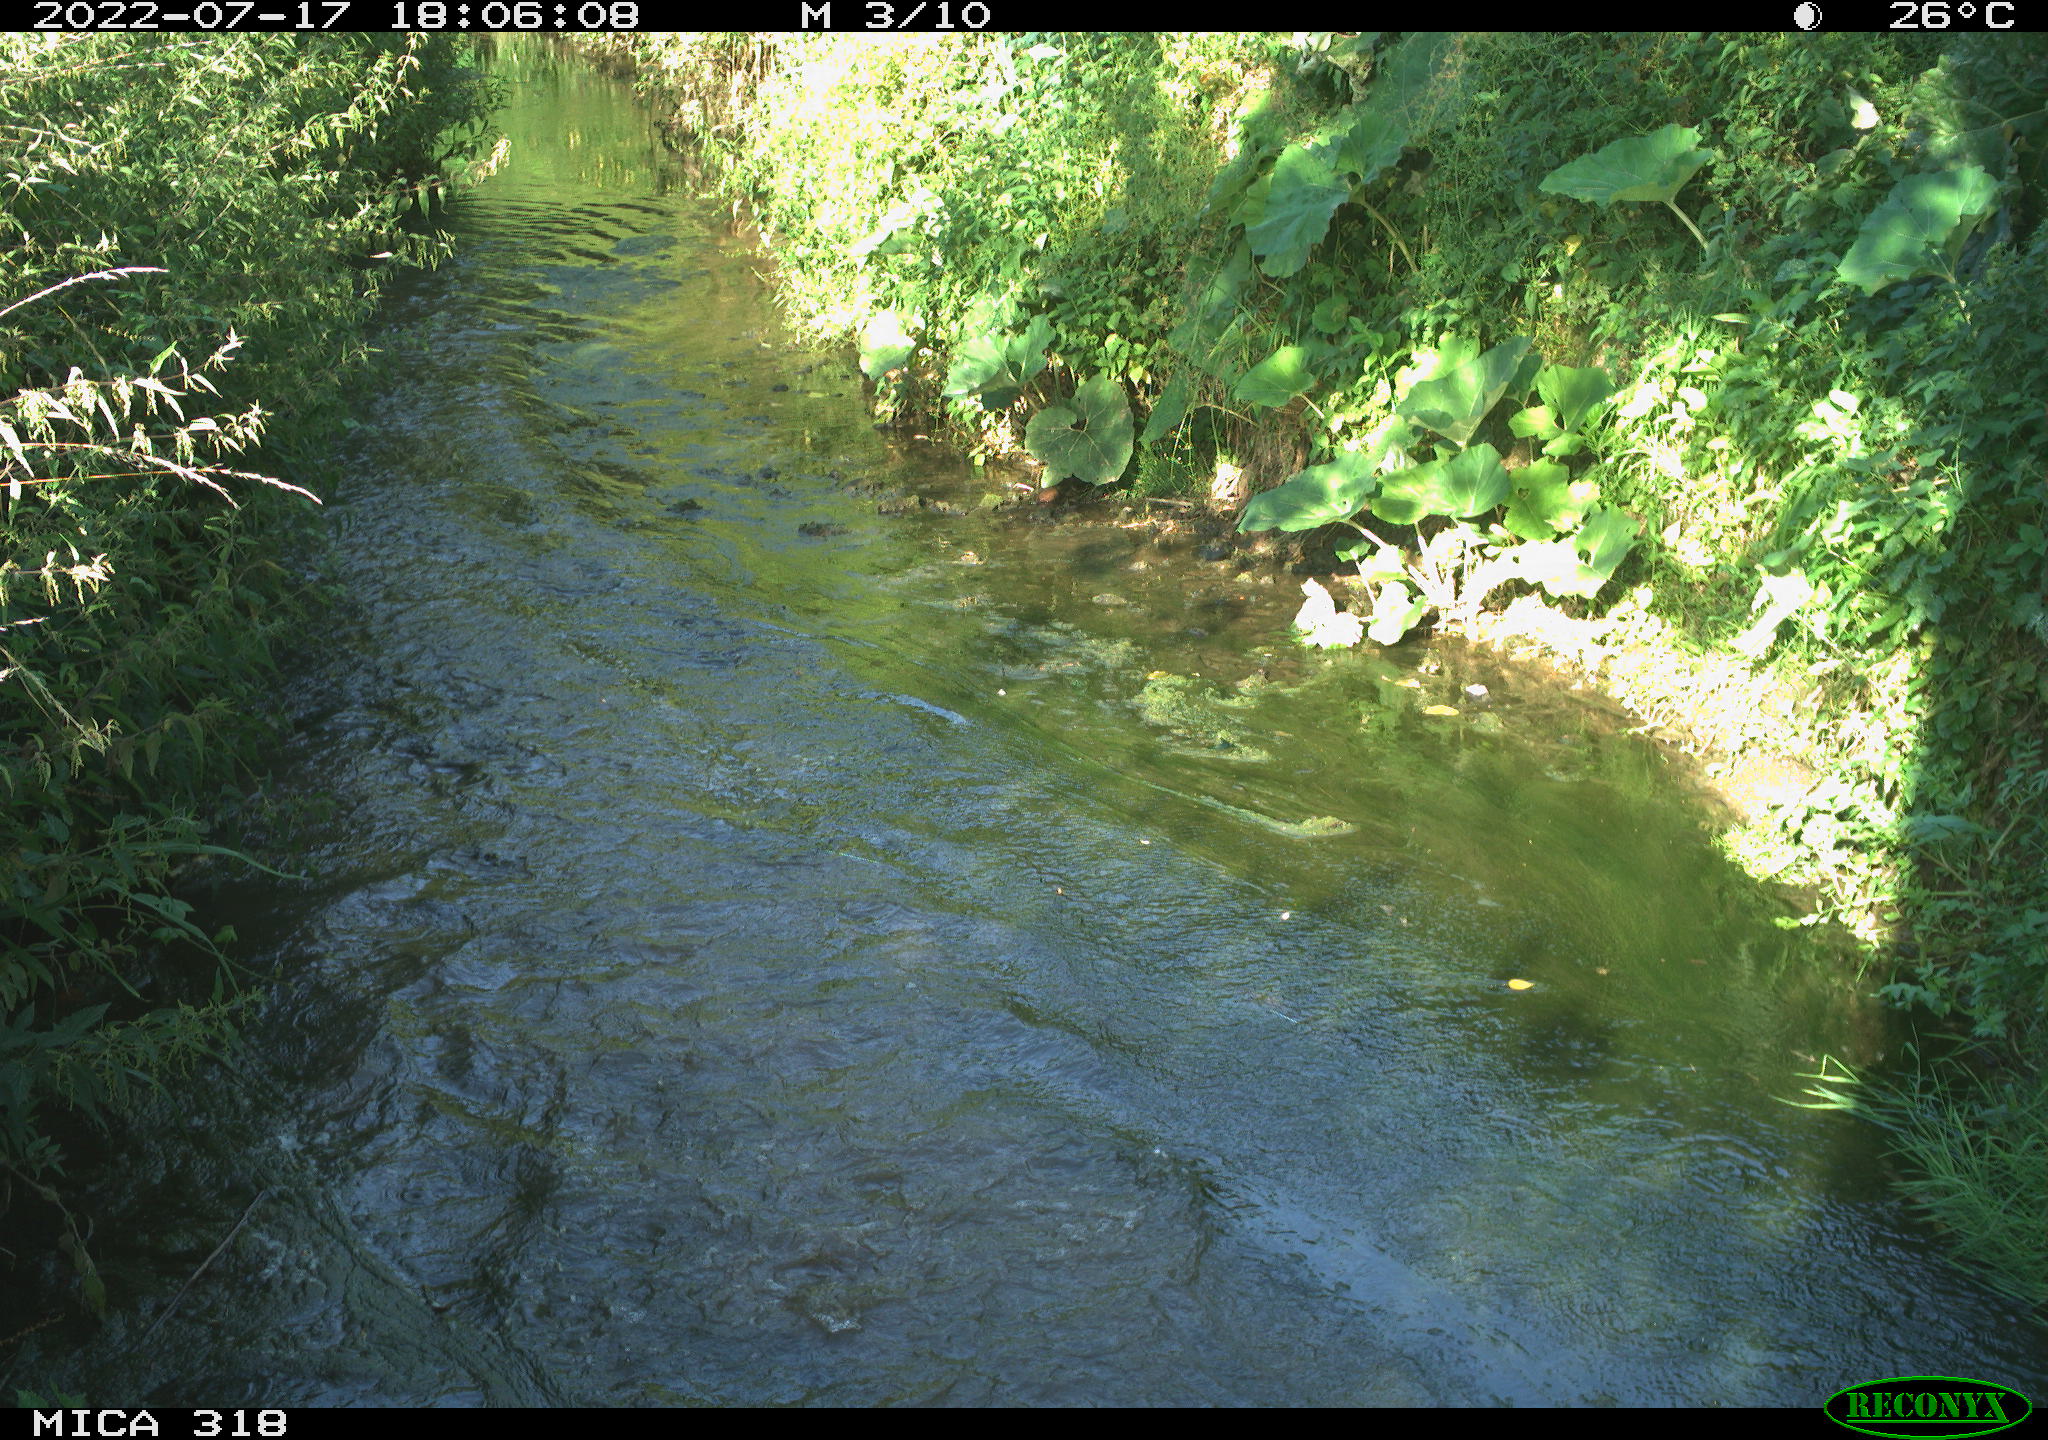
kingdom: Animalia
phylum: Chordata
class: Mammalia
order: Carnivora
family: Canidae
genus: Canis
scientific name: Canis lupus
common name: Gray wolf
